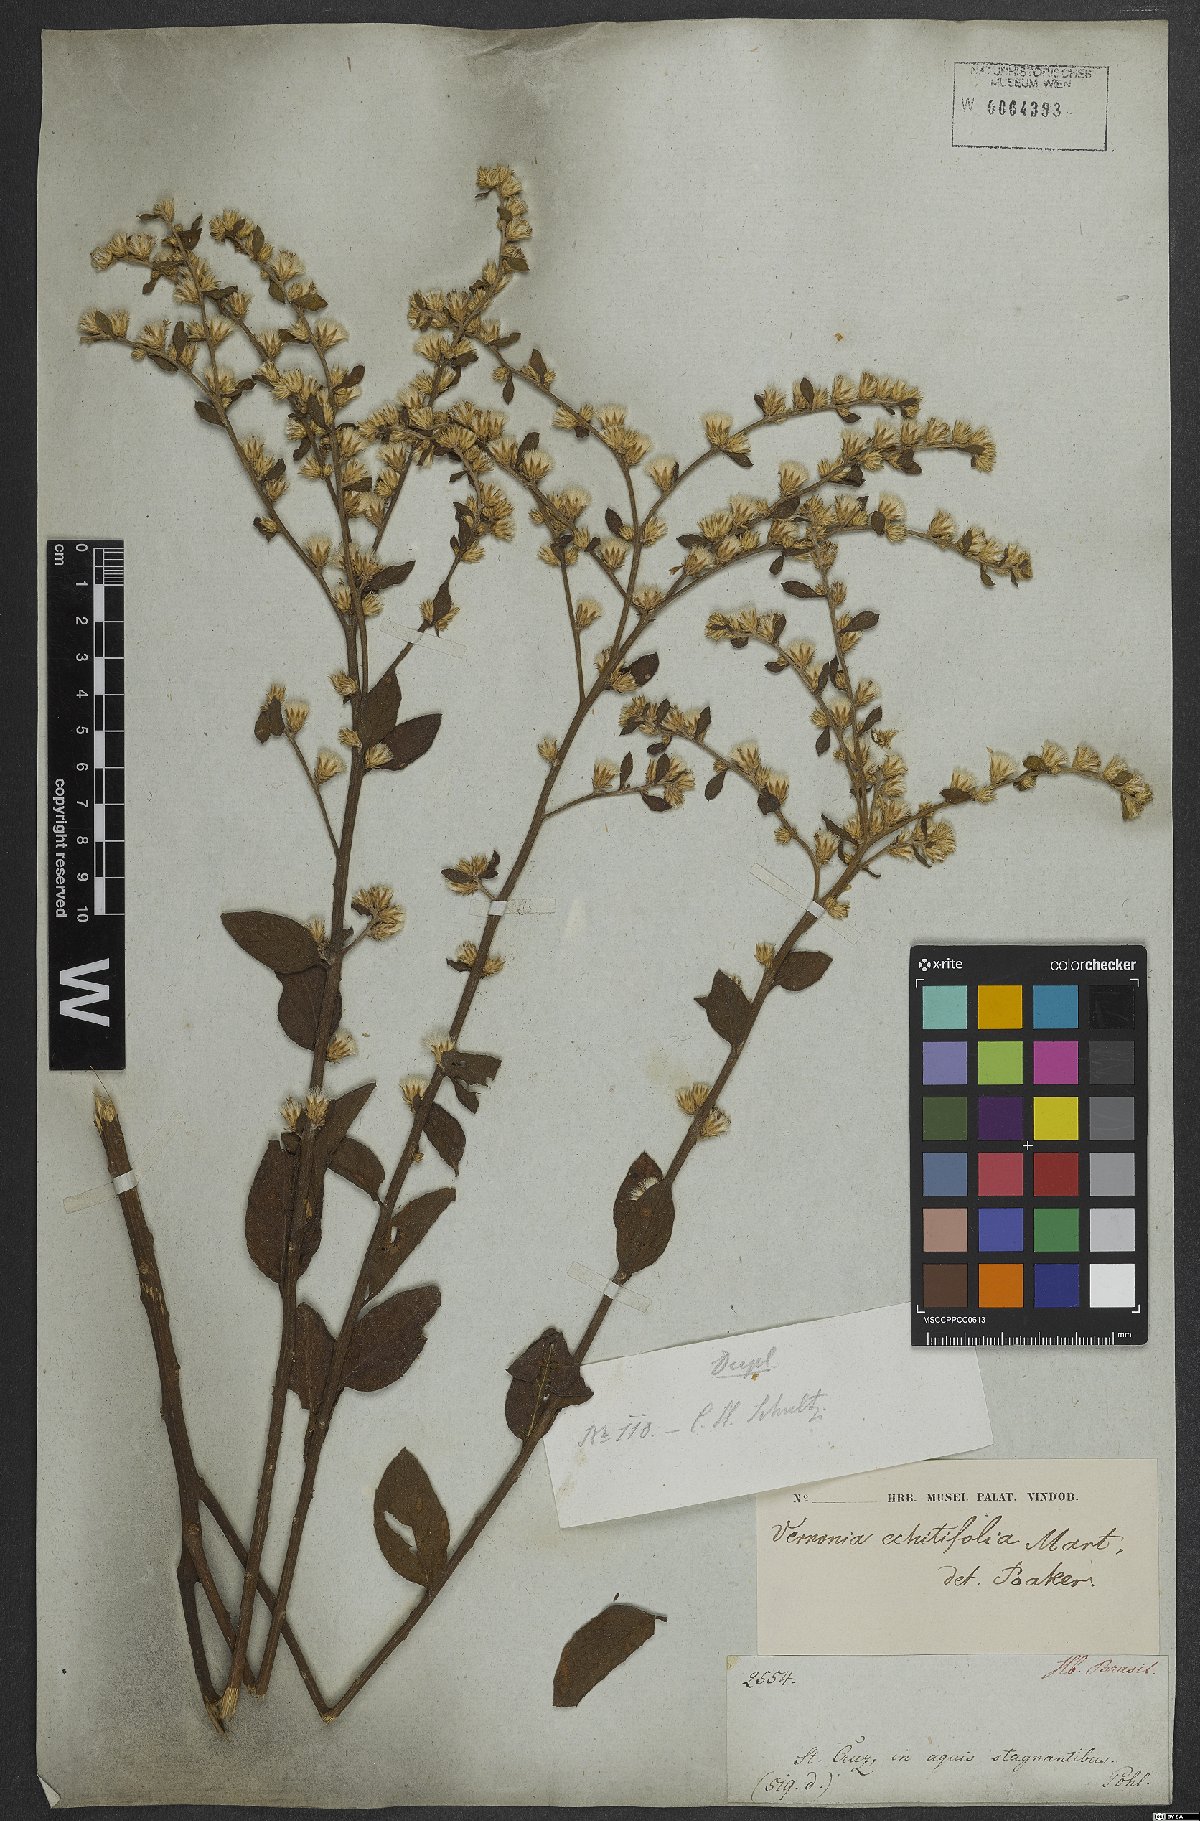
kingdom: Plantae
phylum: Tracheophyta
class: Magnoliopsida
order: Asterales
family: Asteraceae
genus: Acilepidopsis
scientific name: Acilepidopsis echitifolia
